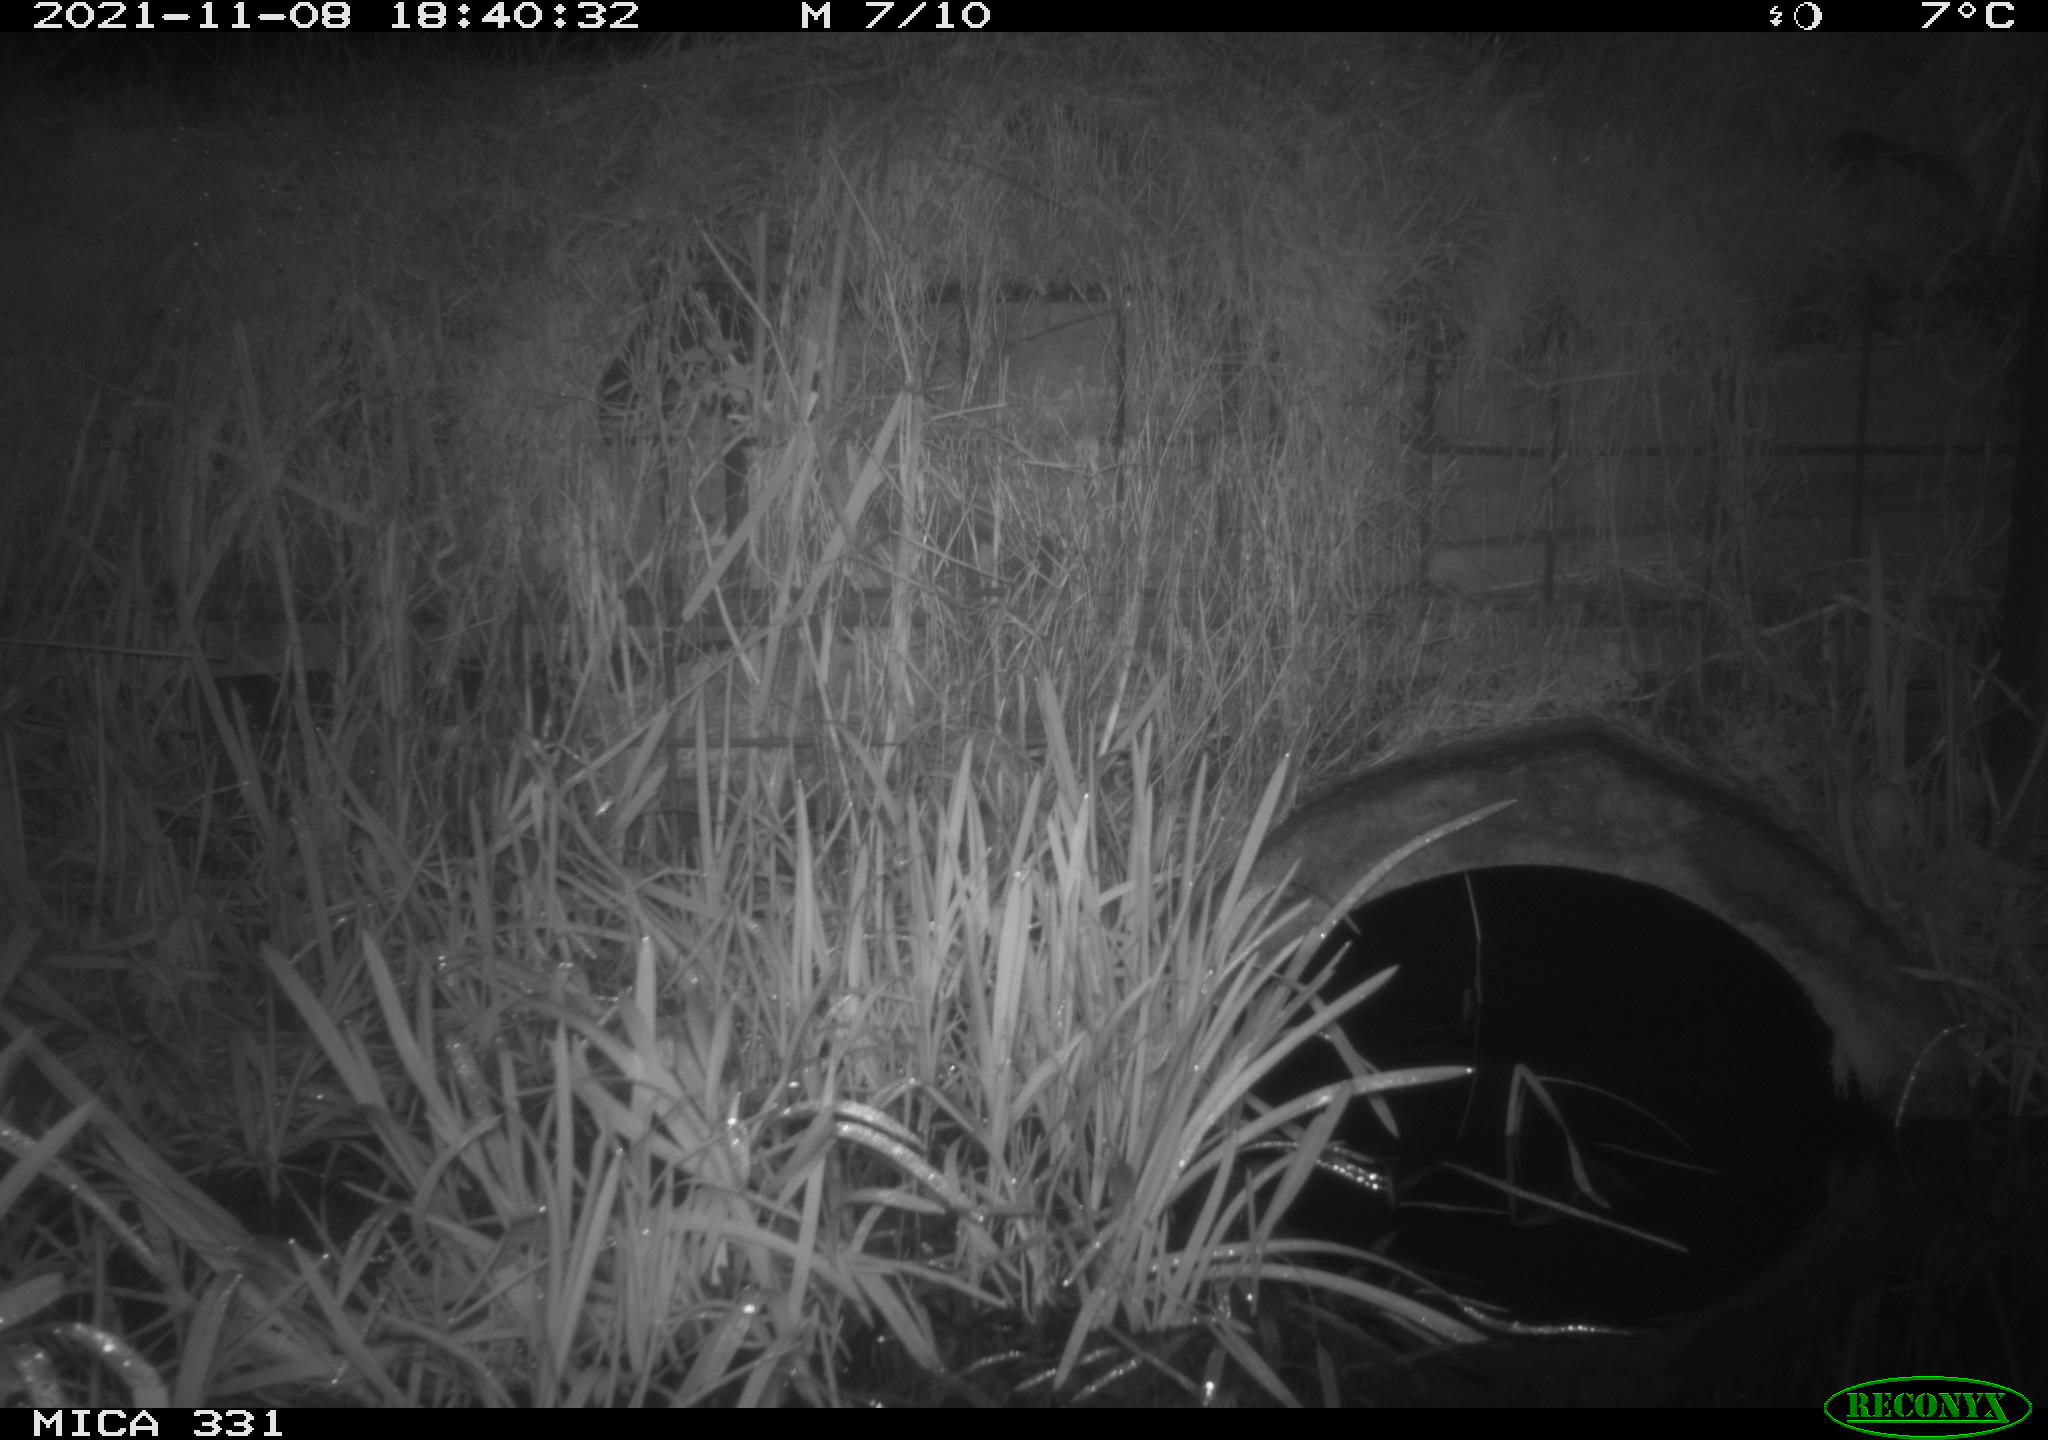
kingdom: Animalia
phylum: Chordata
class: Mammalia
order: Rodentia
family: Muridae
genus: Rattus
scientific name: Rattus norvegicus
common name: Brown rat
